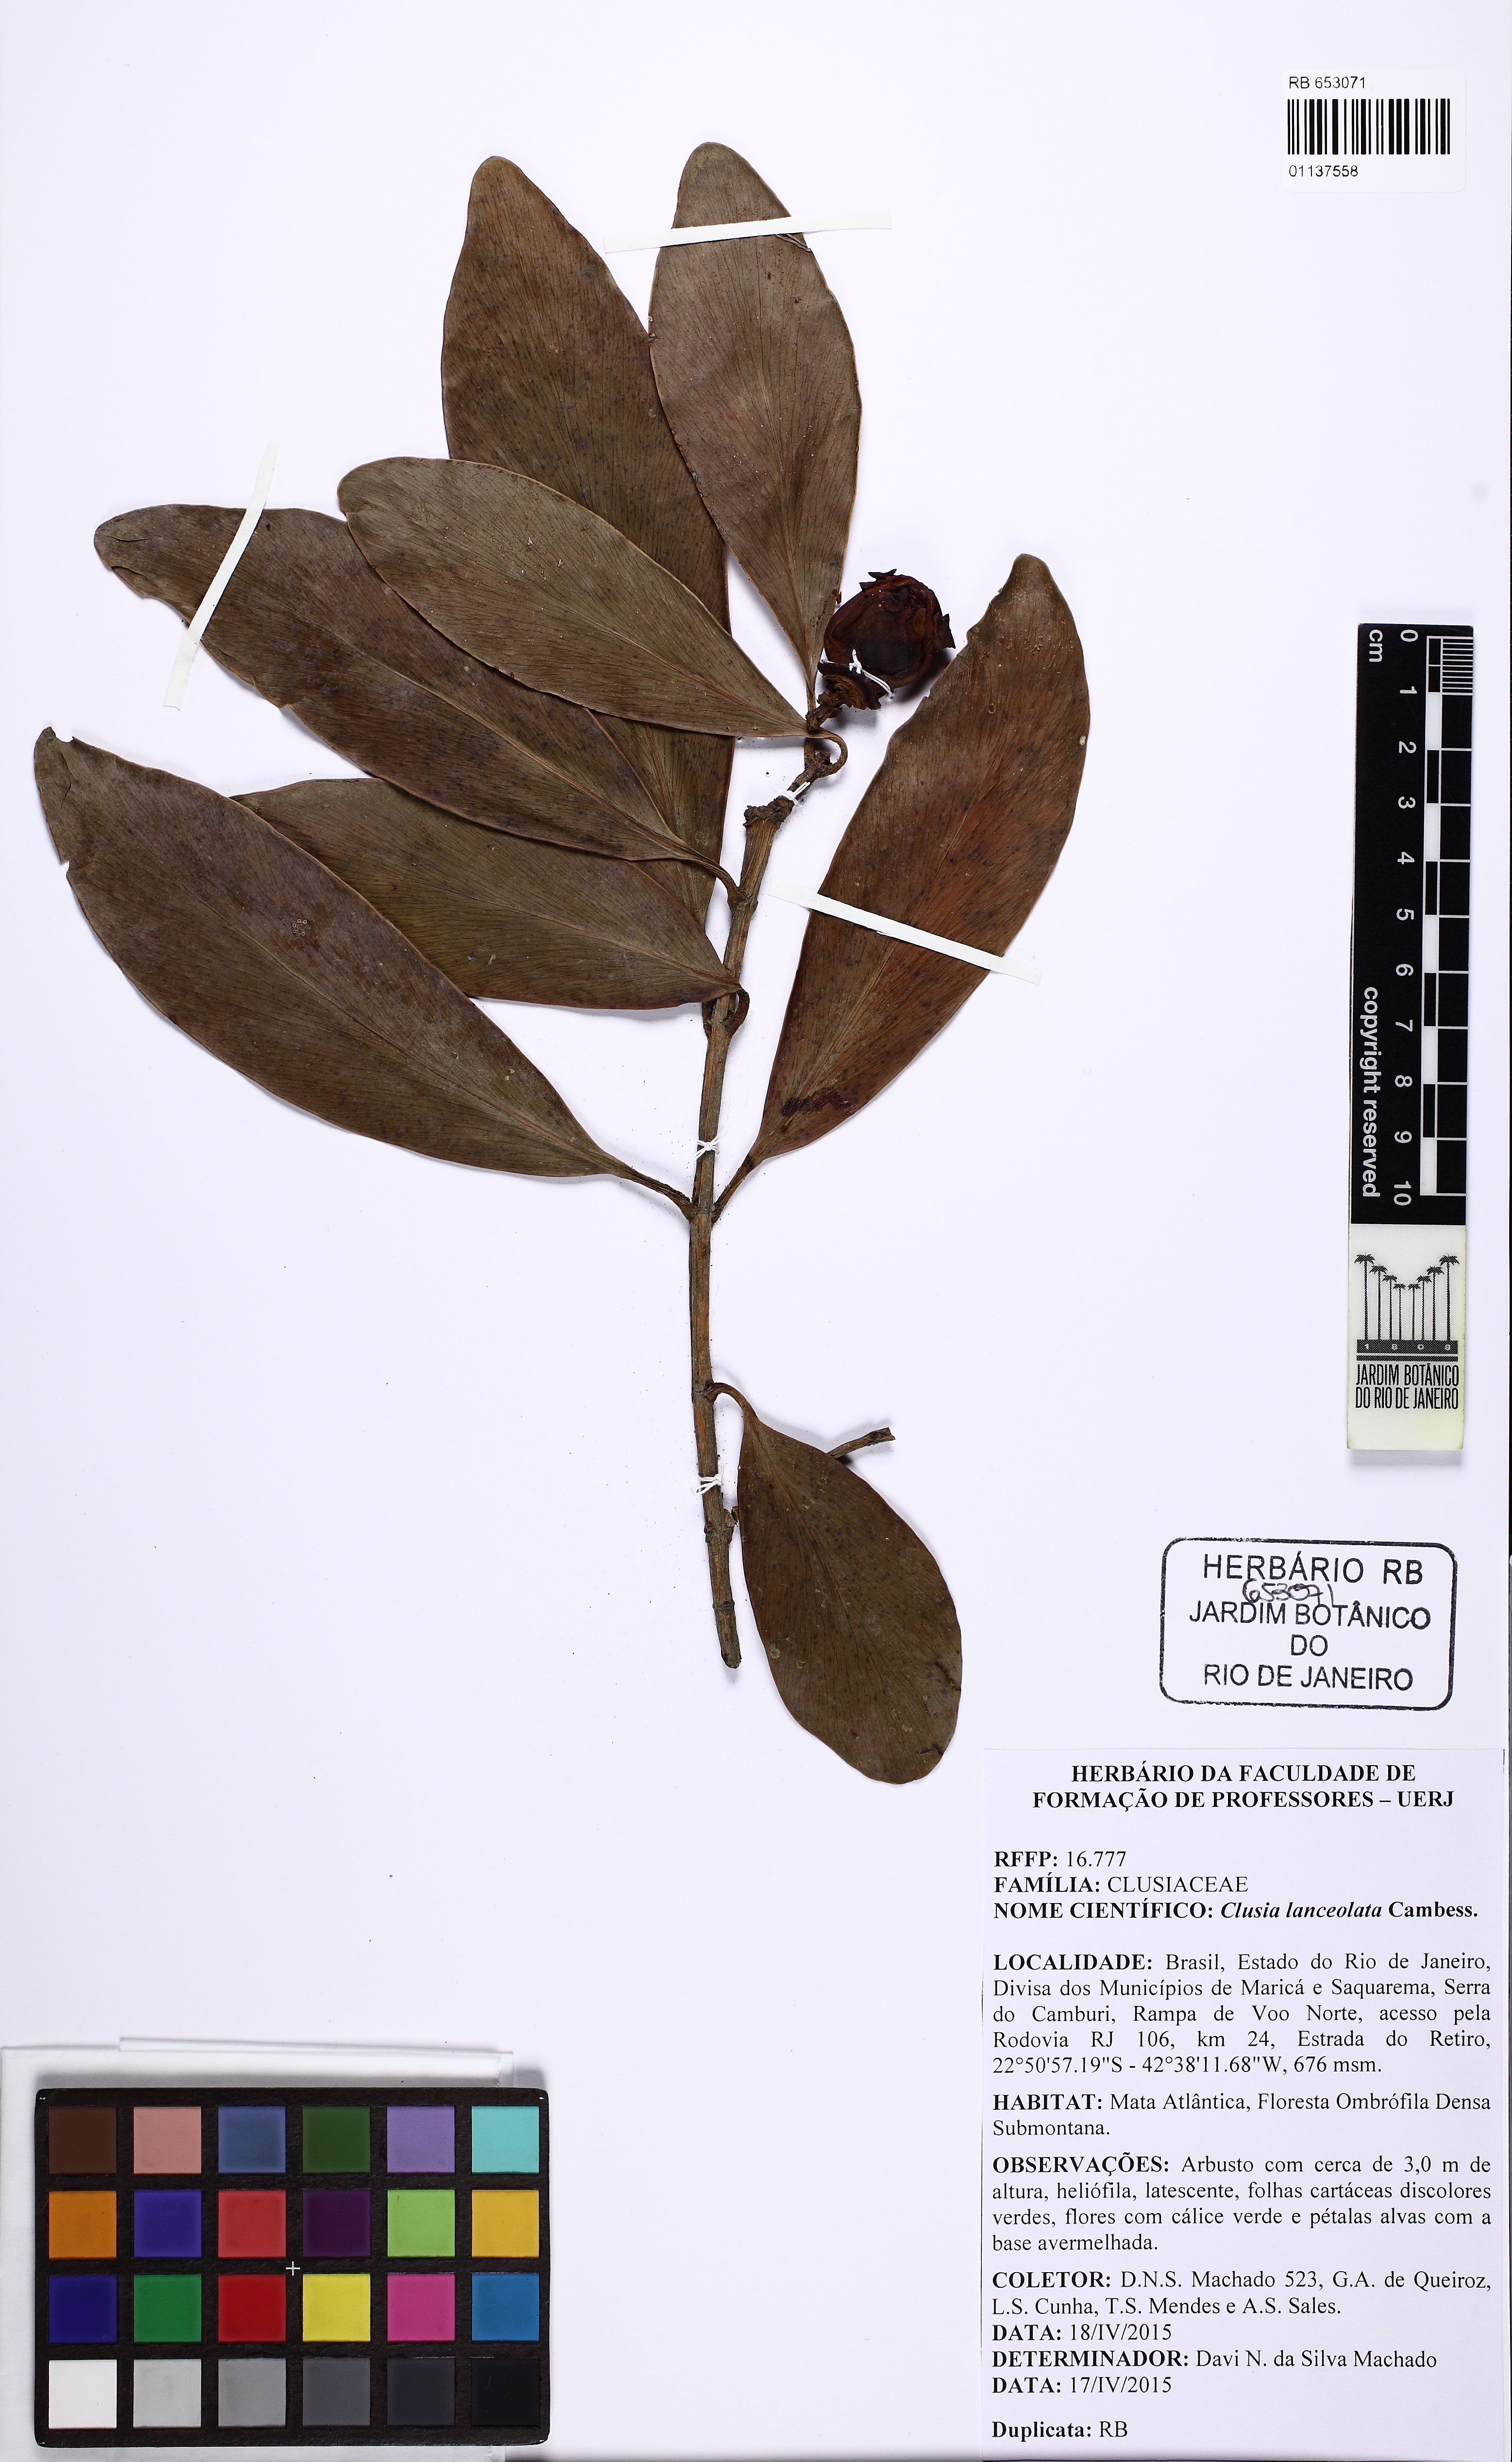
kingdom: Plantae
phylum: Tracheophyta
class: Magnoliopsida
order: Malpighiales
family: Clusiaceae
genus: Clusia
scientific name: Clusia lanceolata
